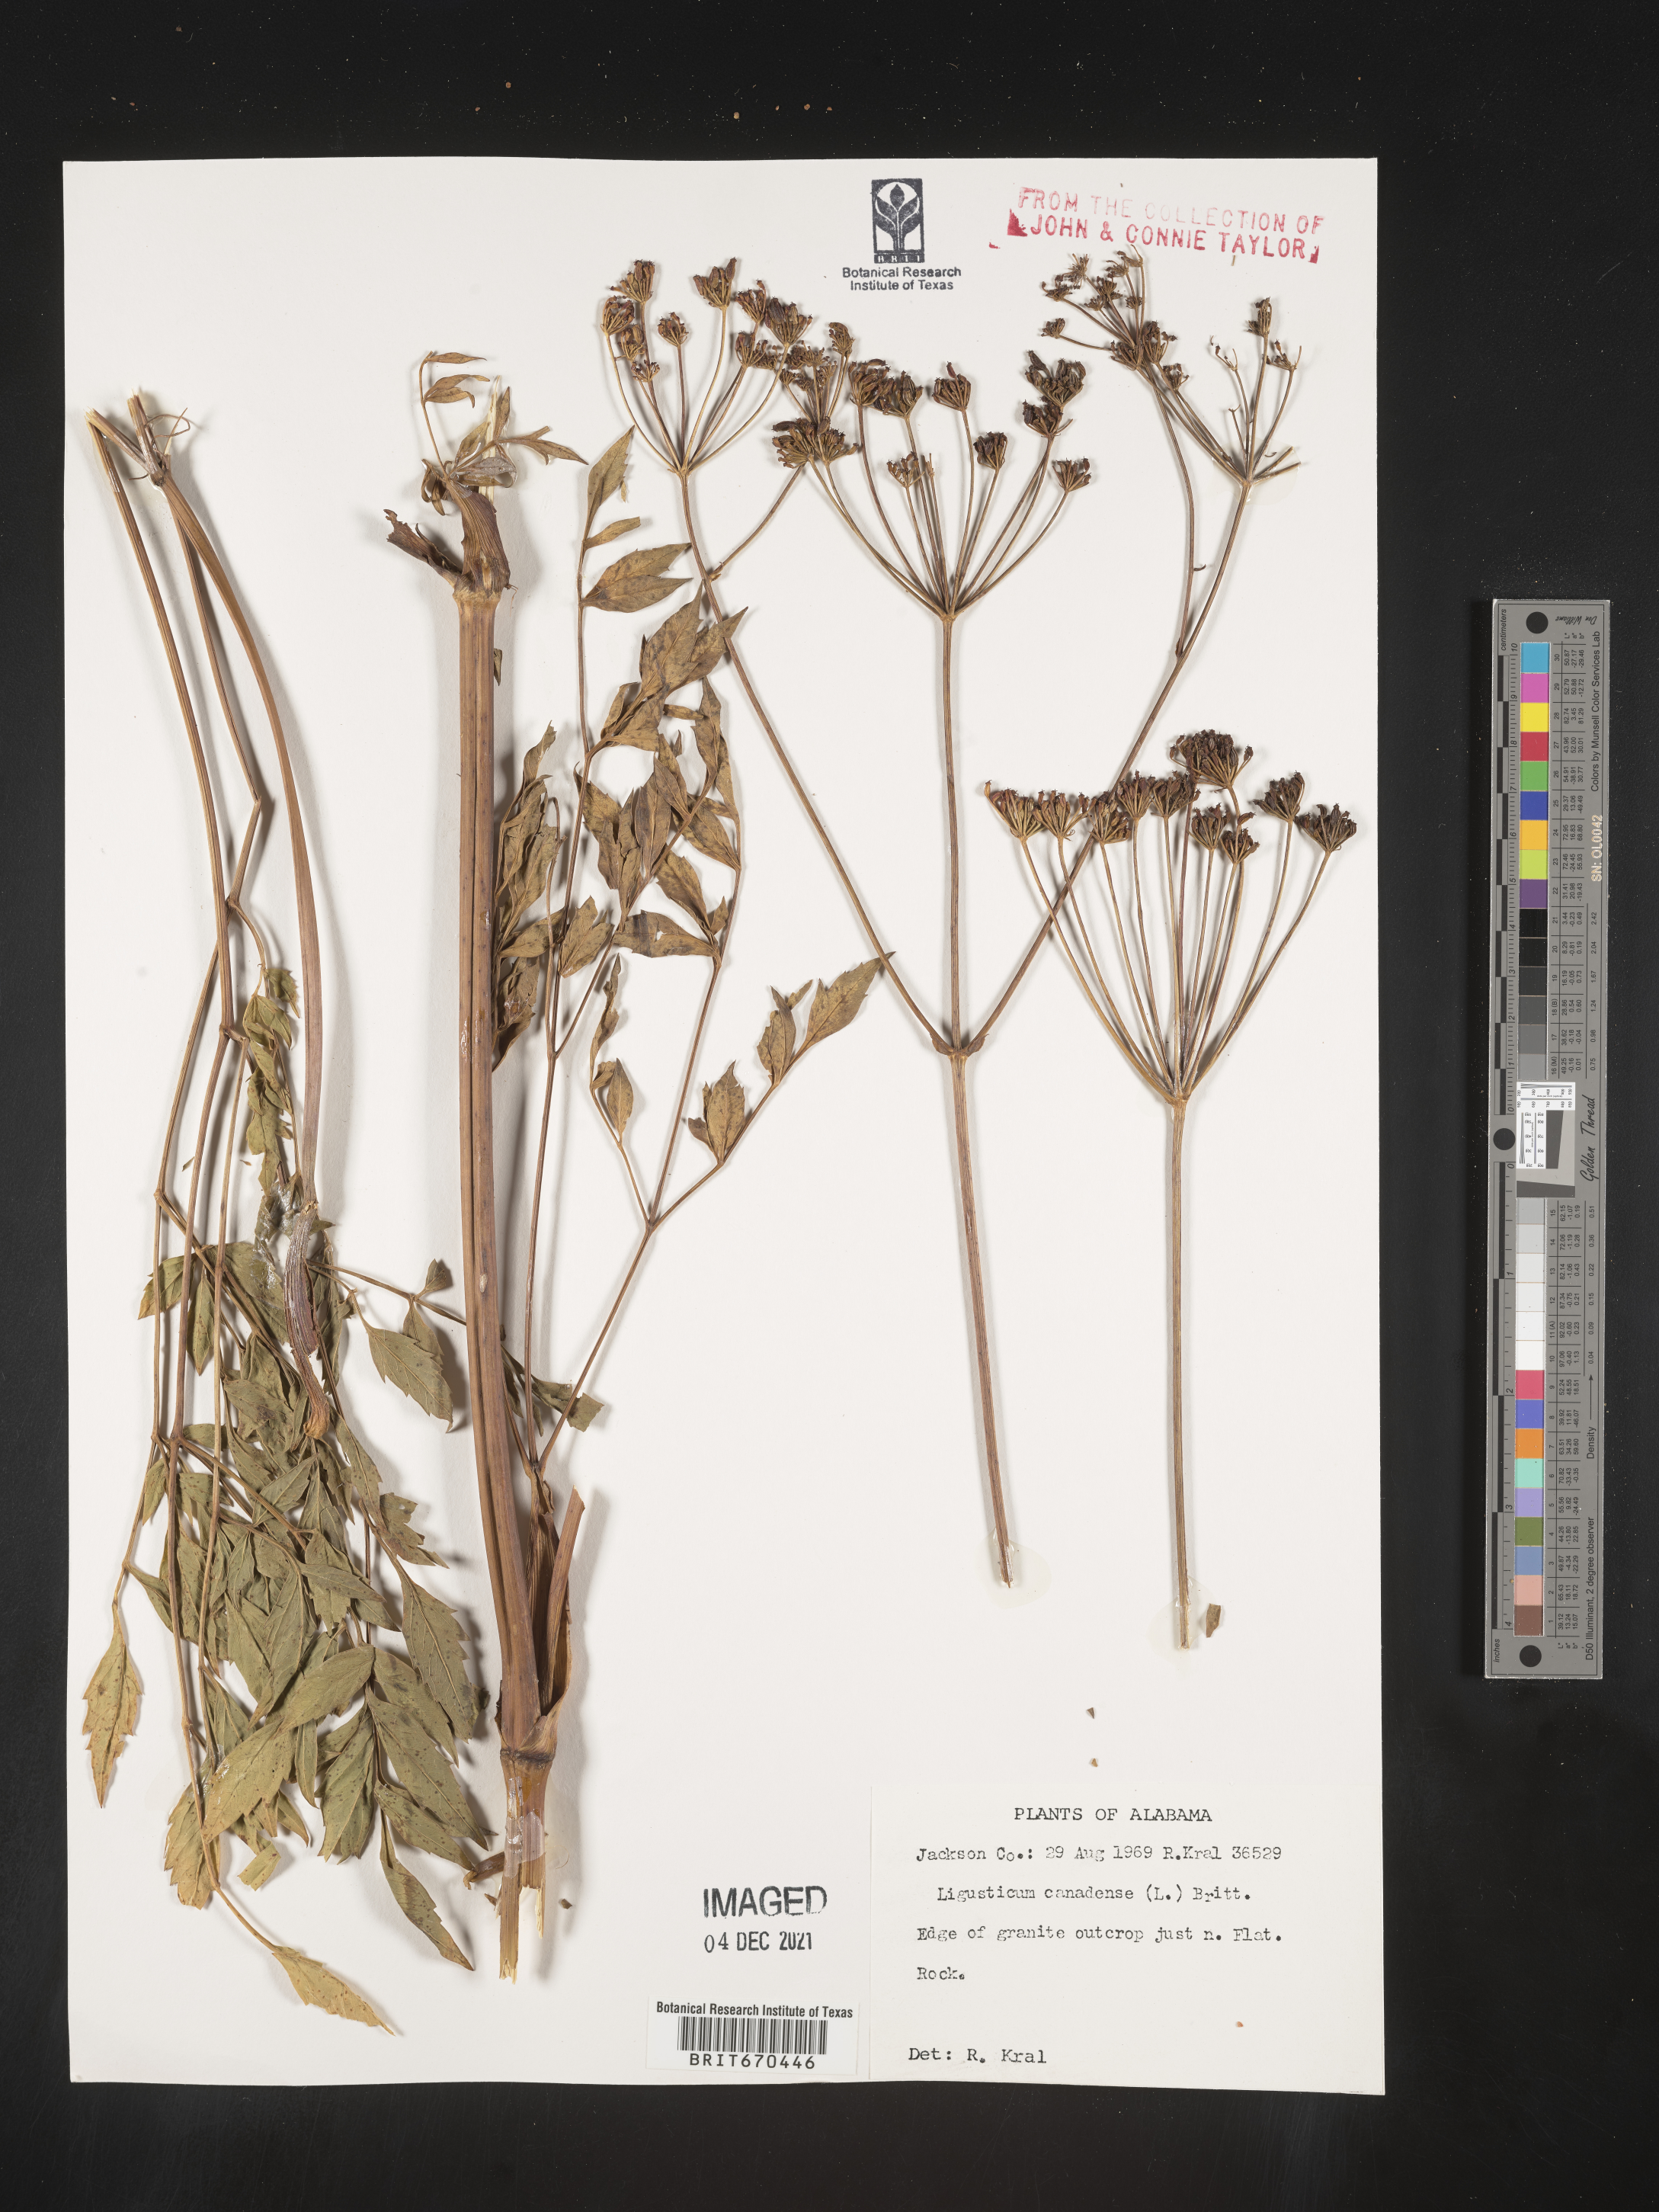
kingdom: Plantae
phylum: Tracheophyta
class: Magnoliopsida
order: Apiales
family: Apiaceae
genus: Ligusticum
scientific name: Ligusticum
